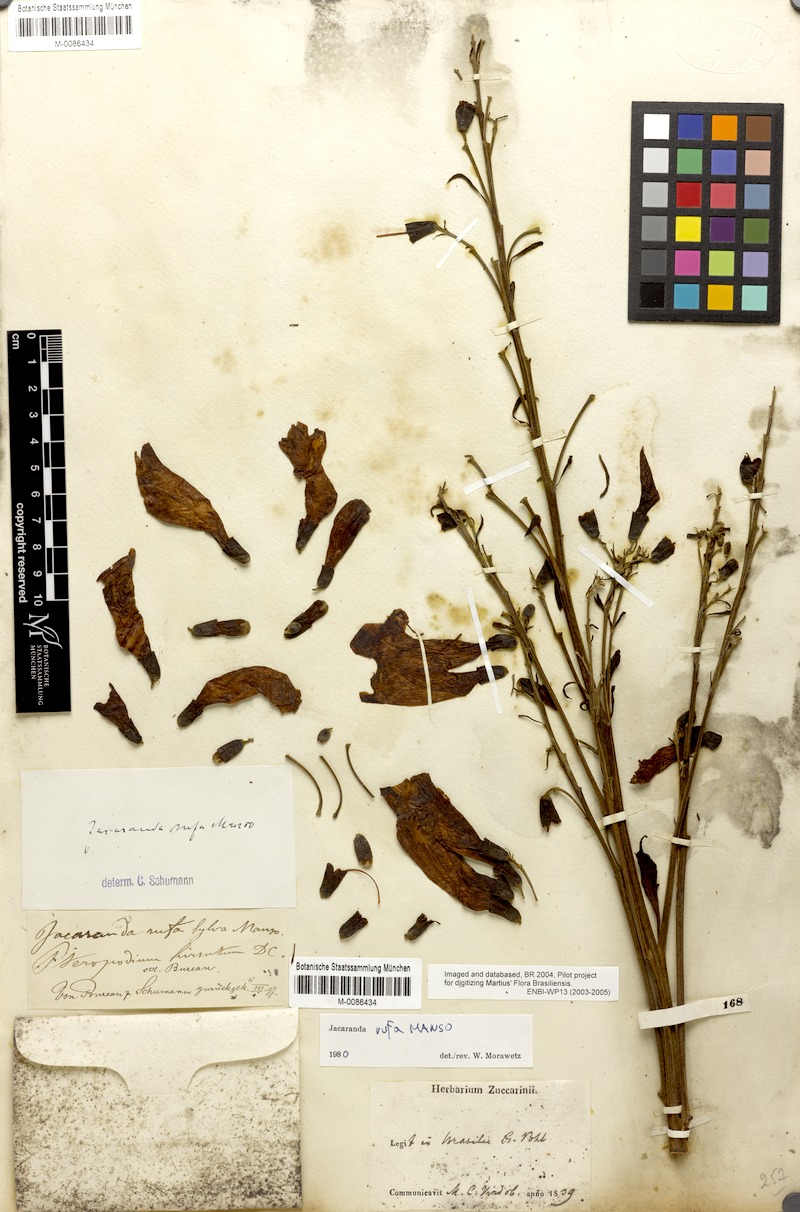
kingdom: Plantae
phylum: Tracheophyta
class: Magnoliopsida
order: Lamiales
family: Bignoniaceae
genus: Jacaranda
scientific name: Jacaranda rufa
